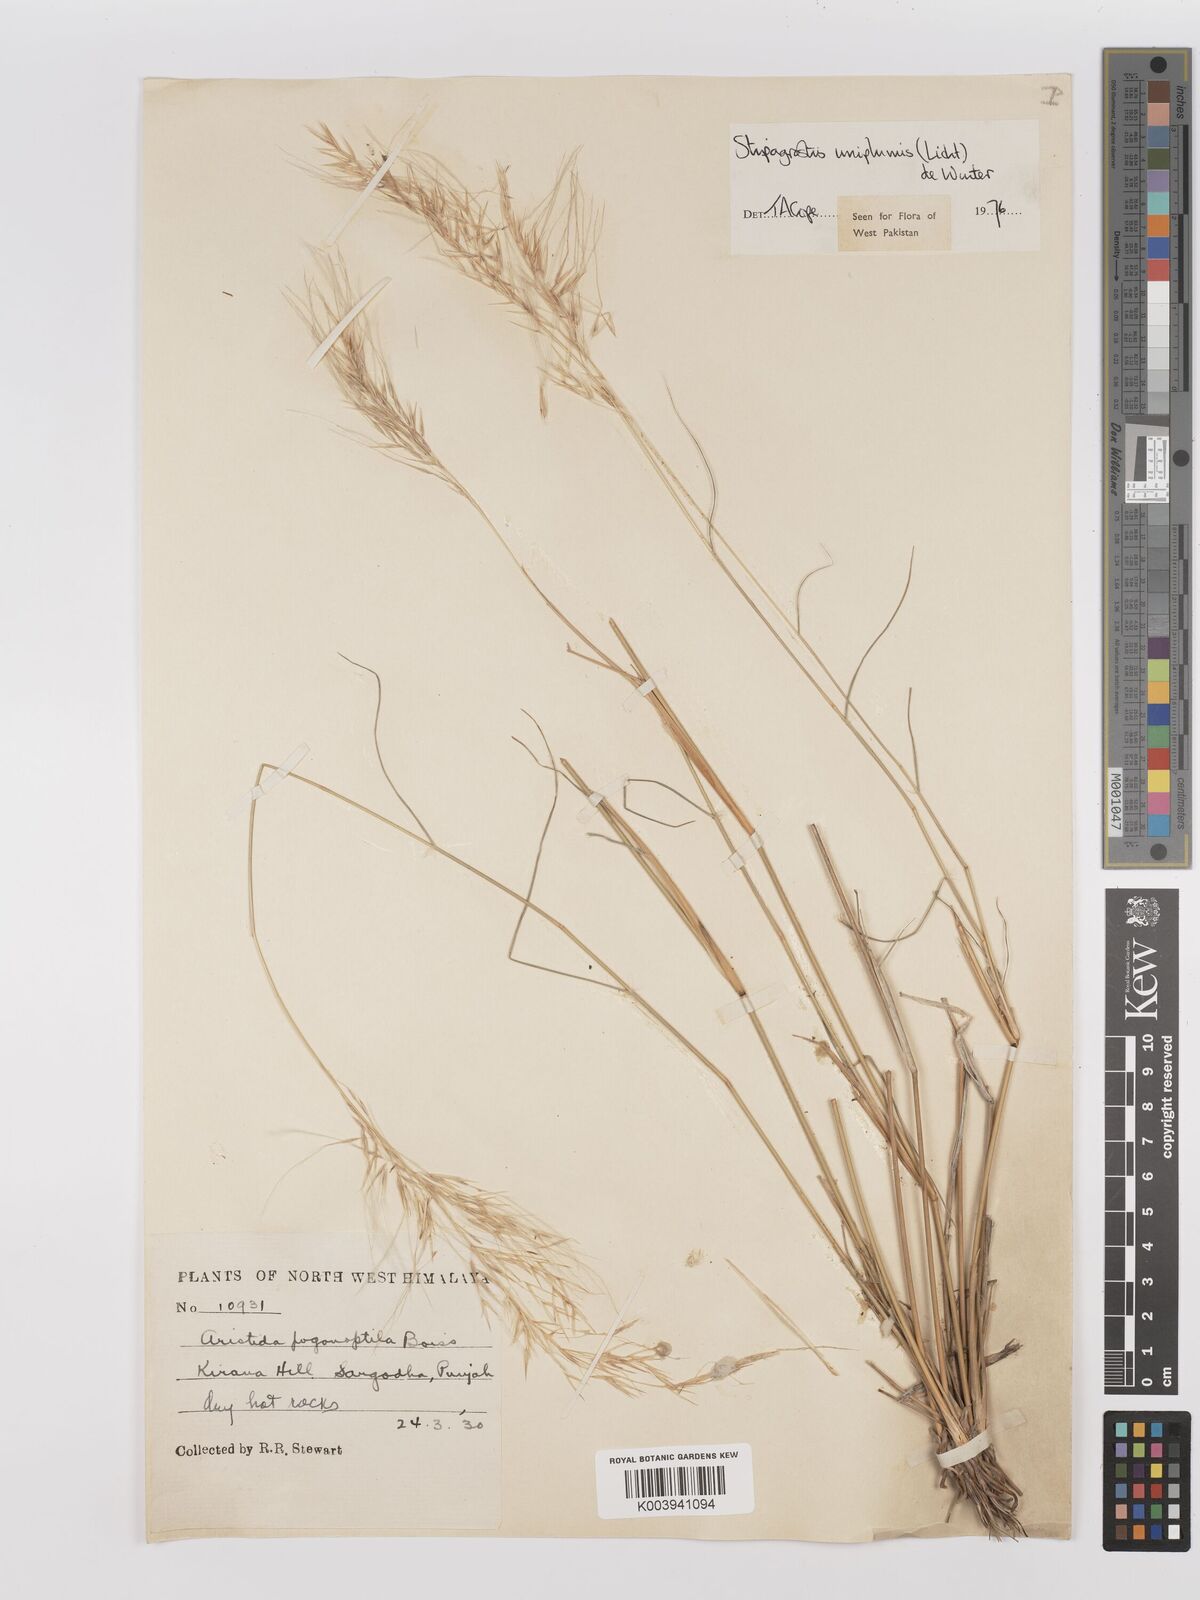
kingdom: Plantae
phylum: Tracheophyta
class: Liliopsida
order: Poales
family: Poaceae
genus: Stipagrostis
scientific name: Stipagrostis uniplumis
